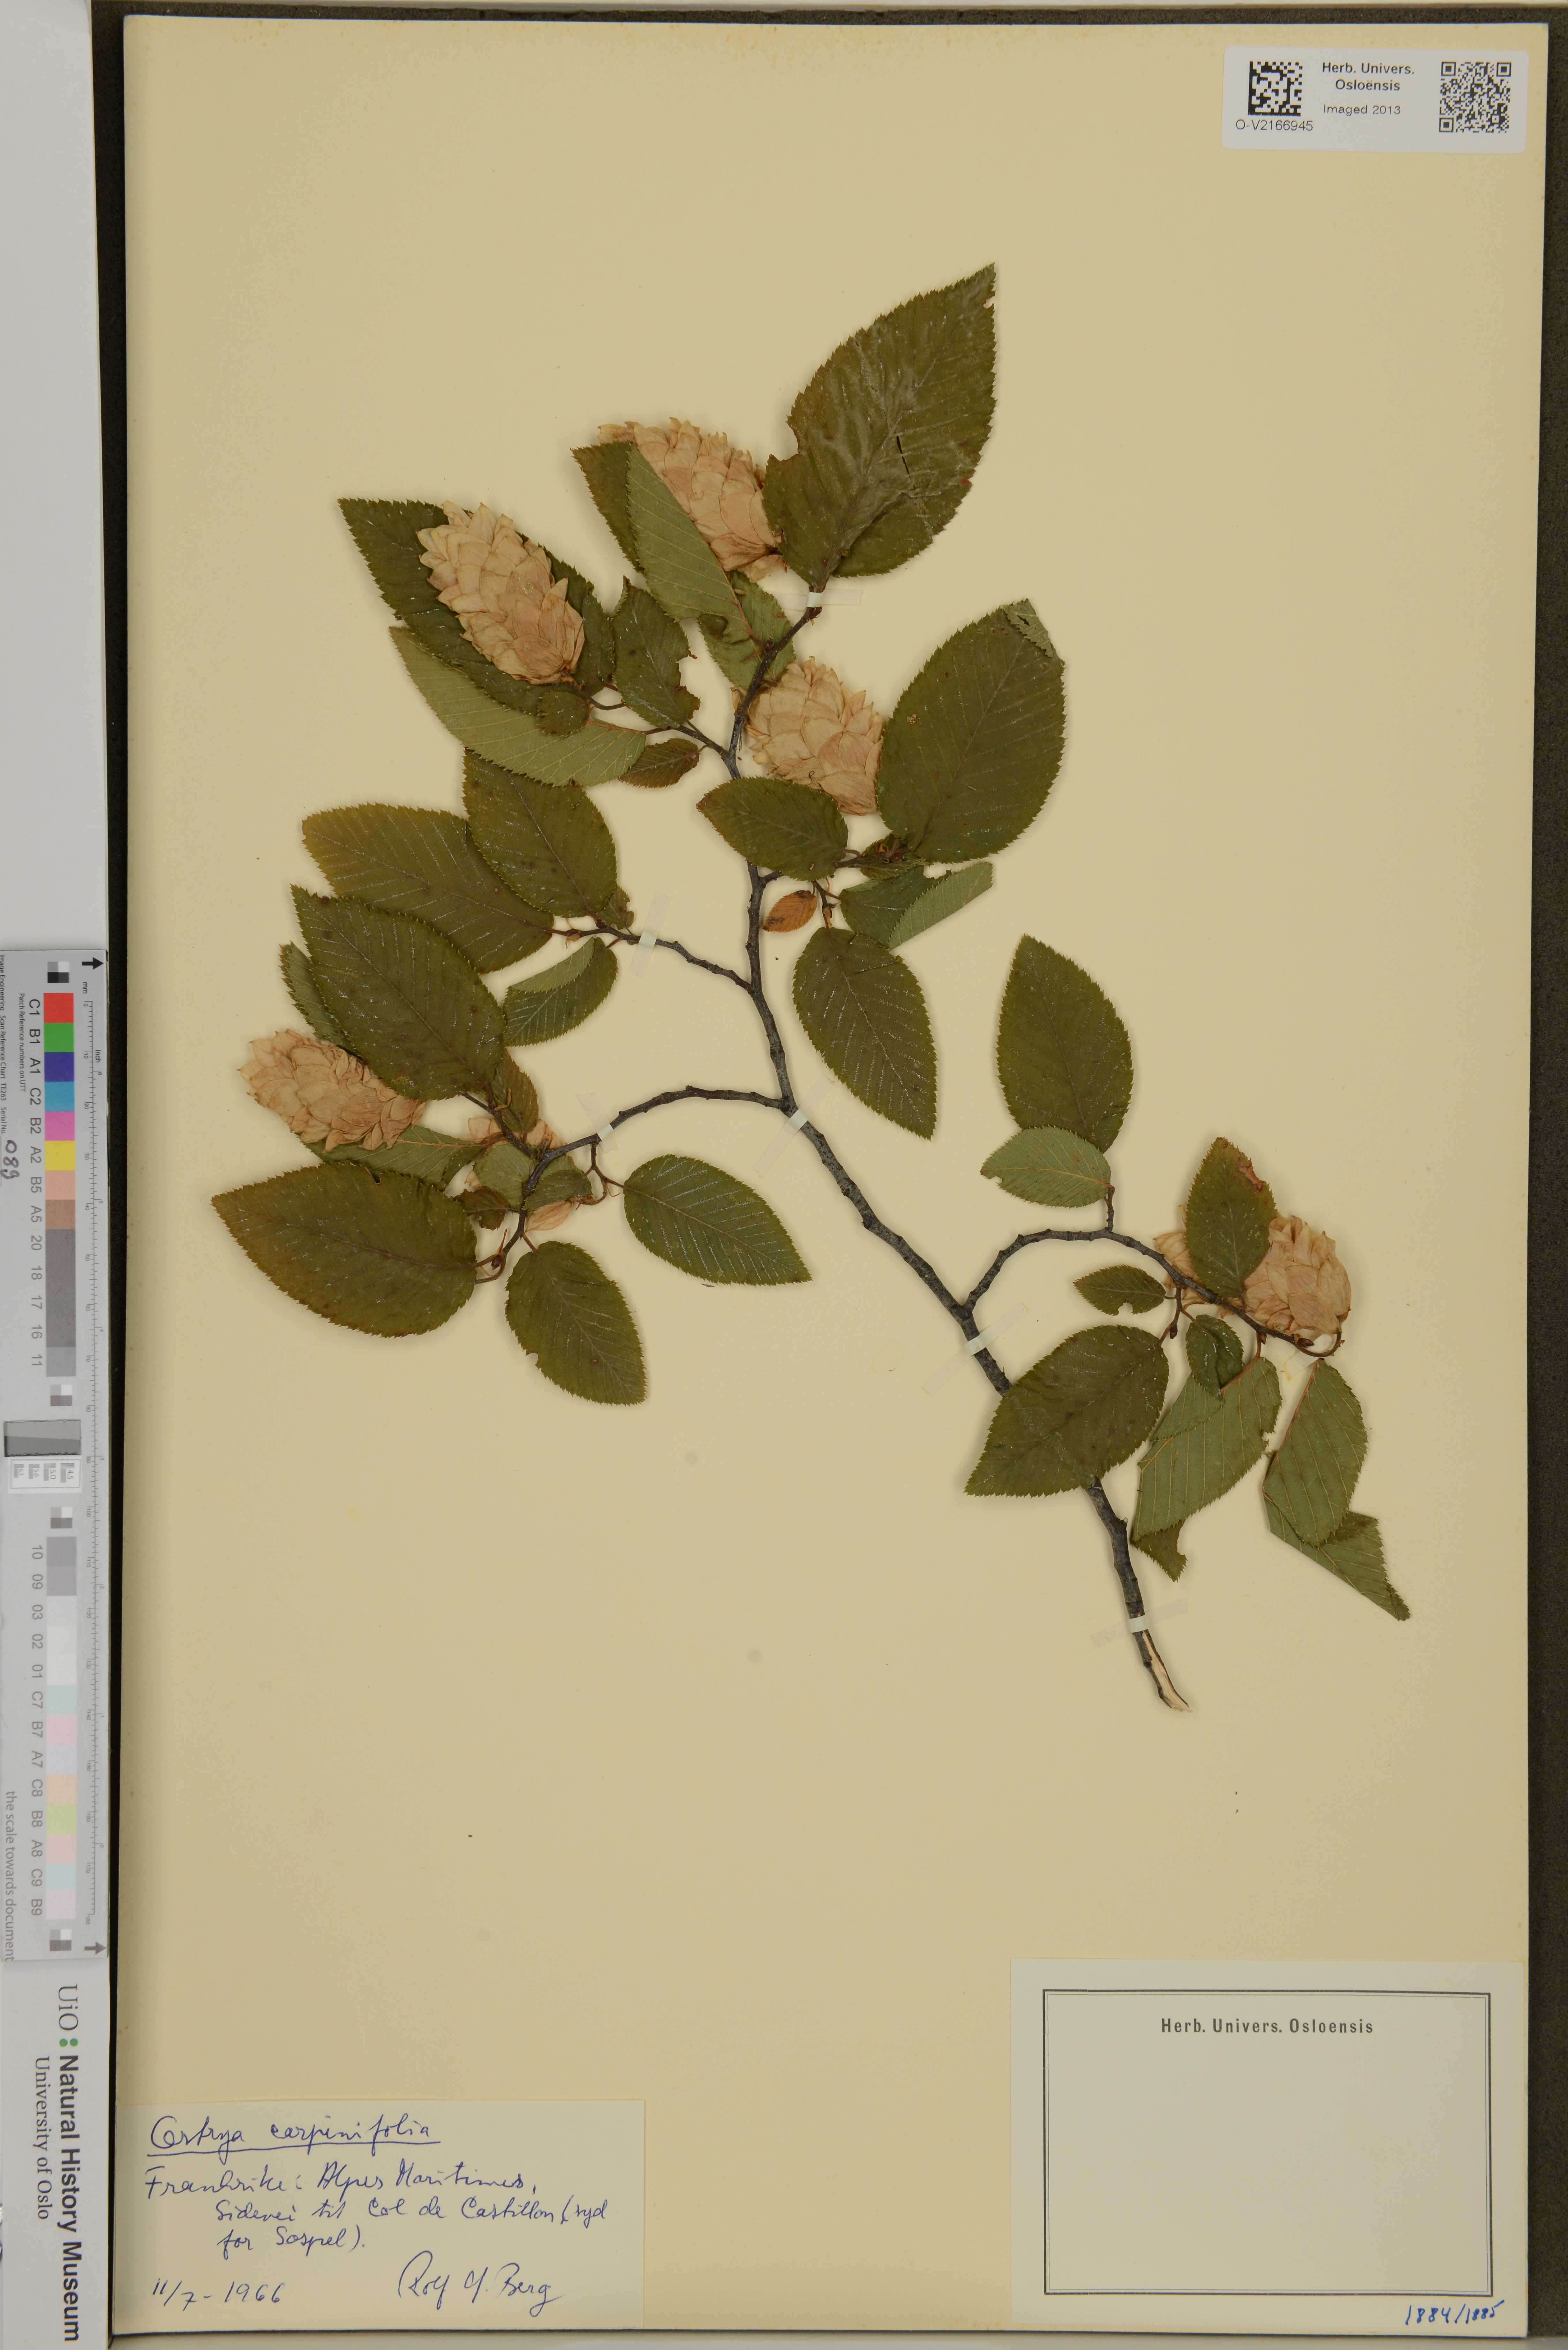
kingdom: Plantae
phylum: Tracheophyta
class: Magnoliopsida
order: Fagales
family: Betulaceae
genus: Ostrya
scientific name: Ostrya carpinifolia
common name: European hop-hornbeam
